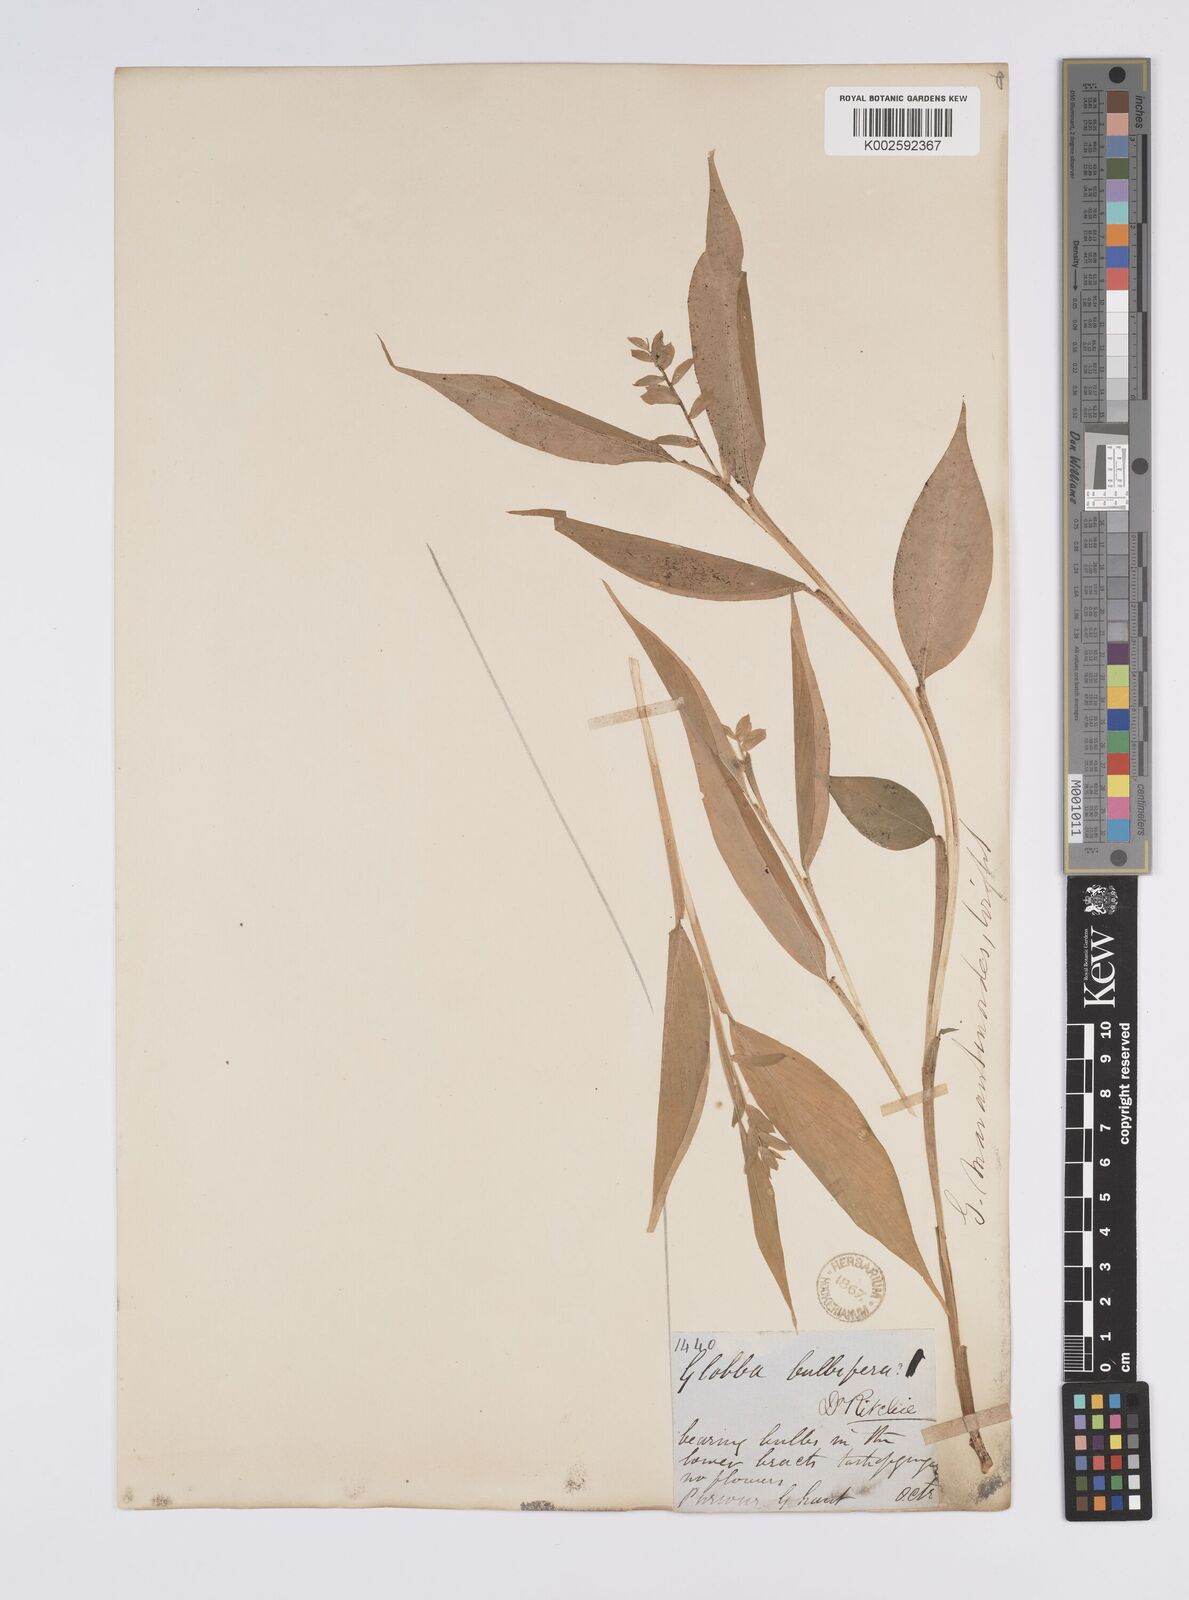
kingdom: Plantae
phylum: Tracheophyta
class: Liliopsida
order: Zingiberales
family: Zingiberaceae
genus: Globba
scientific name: Globba marantina
